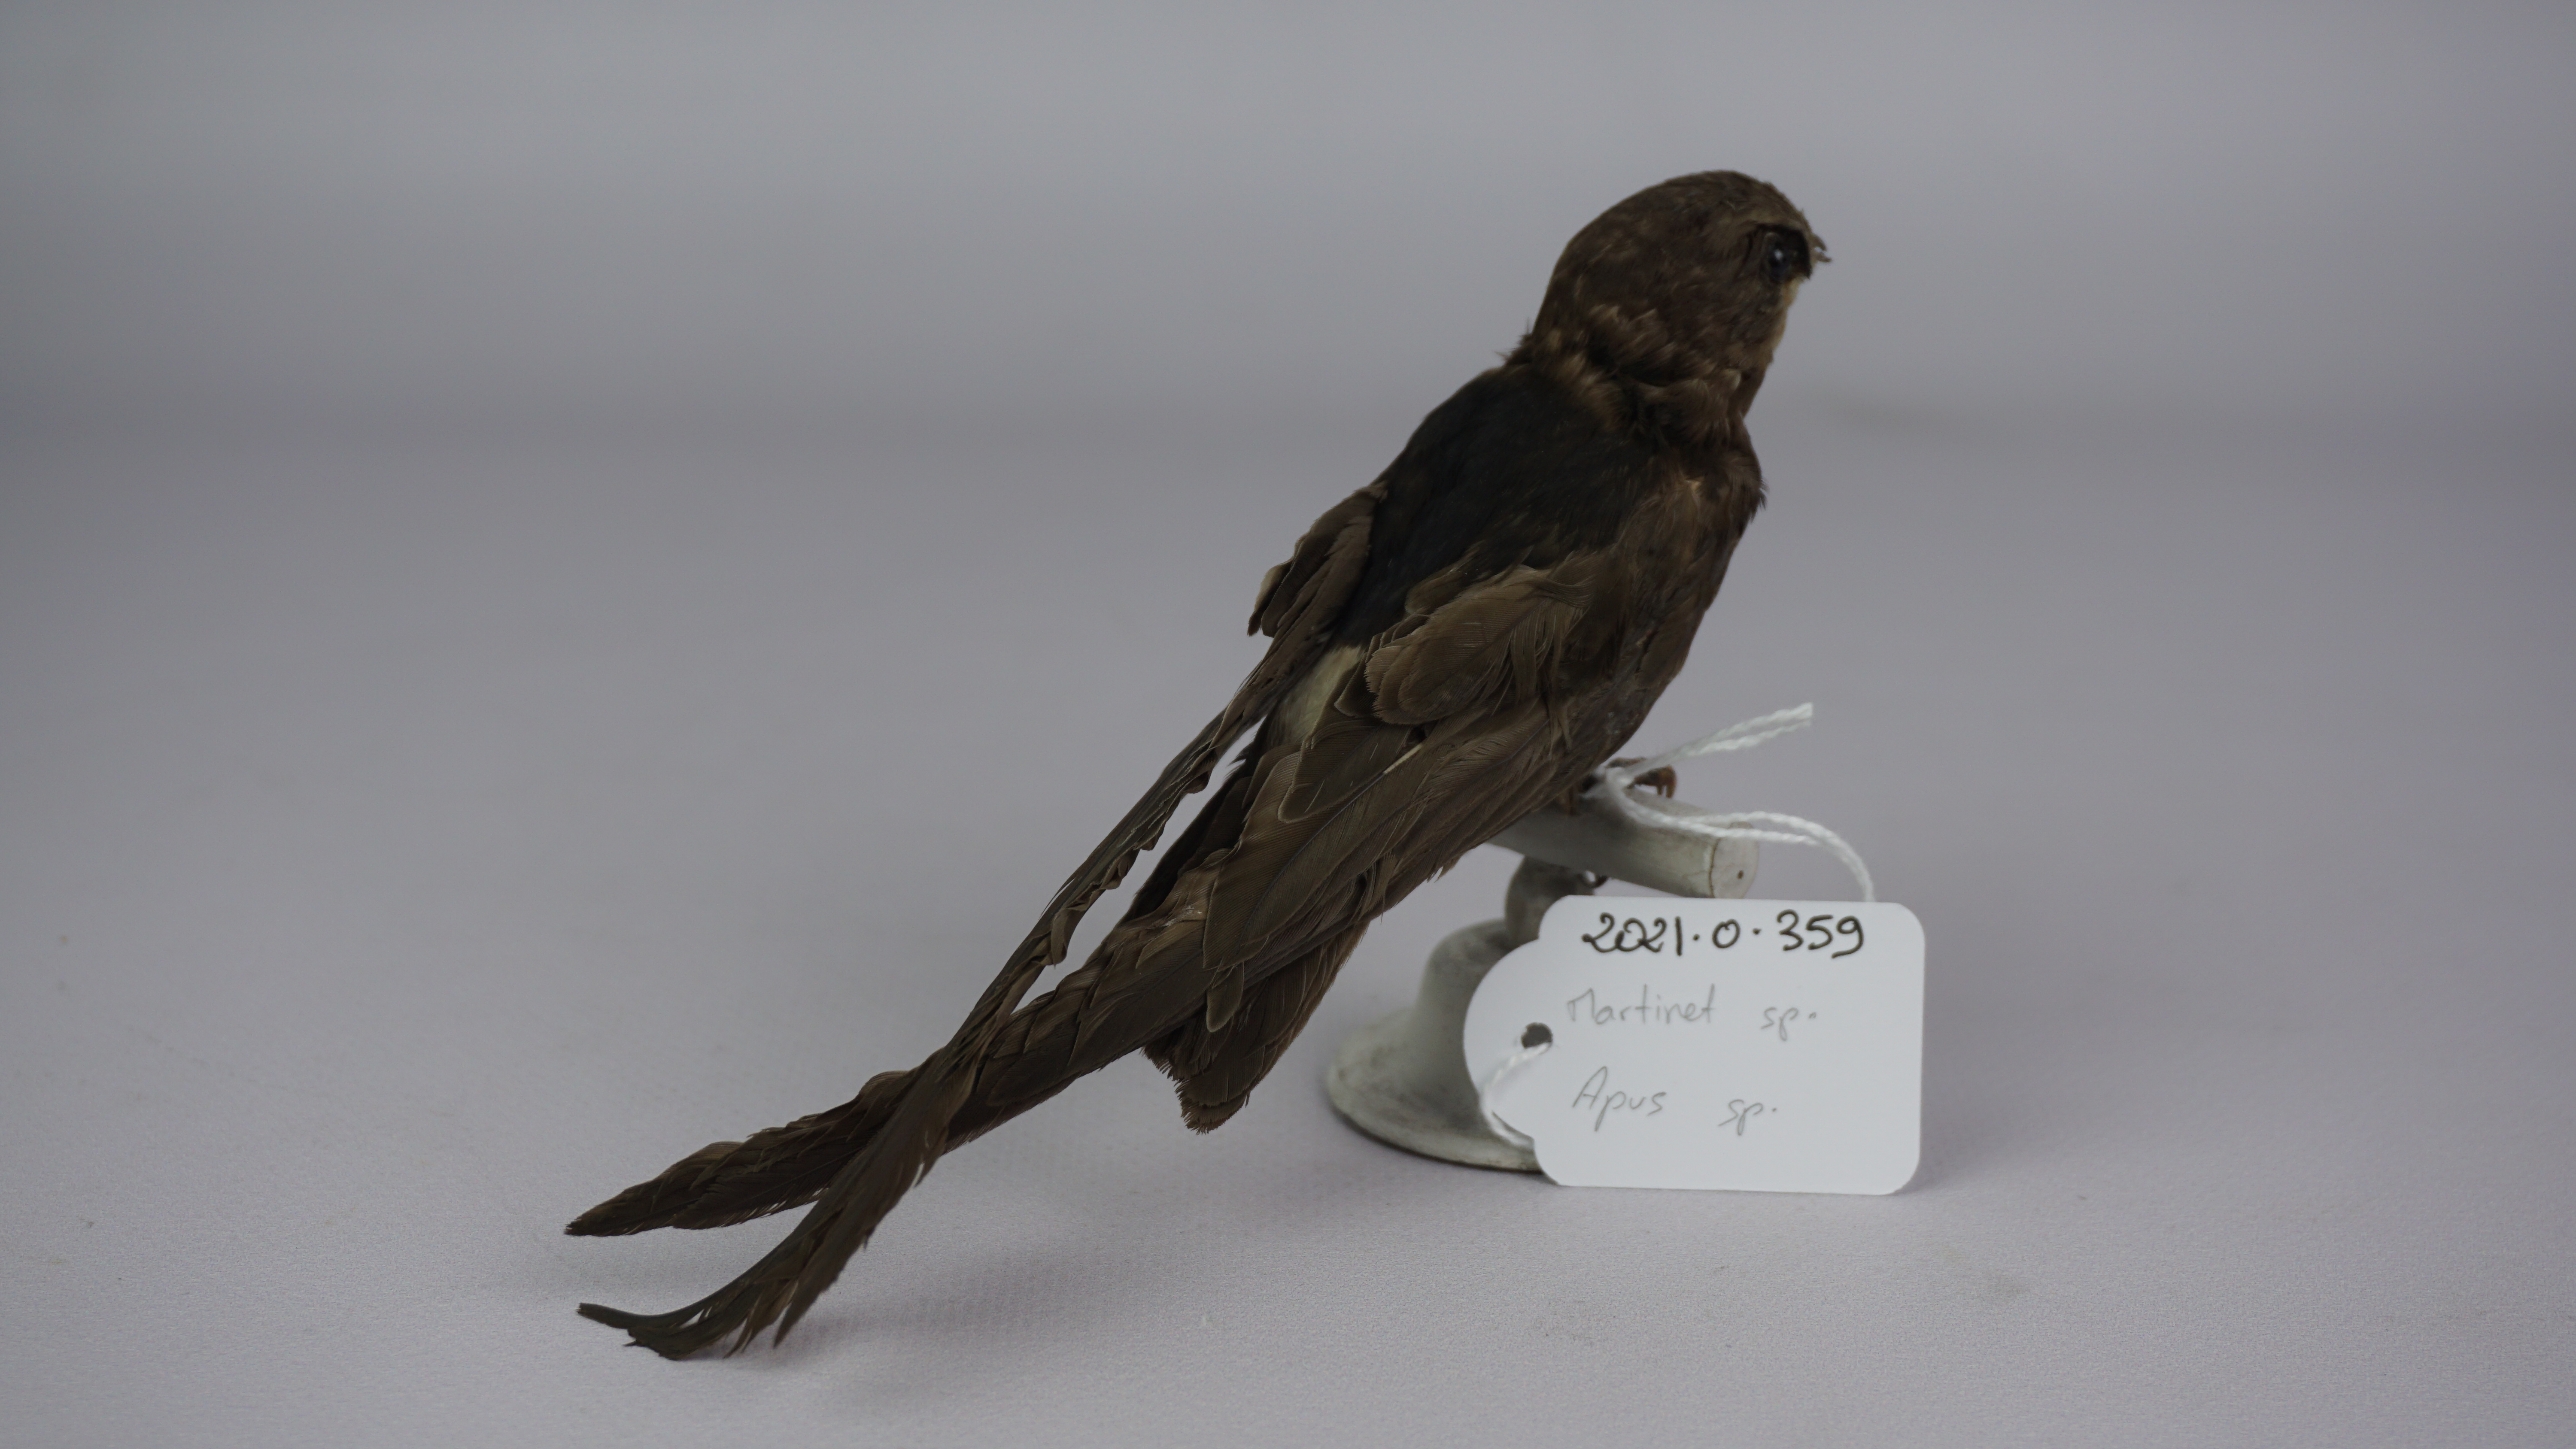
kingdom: Animalia
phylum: Chordata
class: Aves
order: Apodiformes
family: Apodidae
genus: Apus
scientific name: Apus
